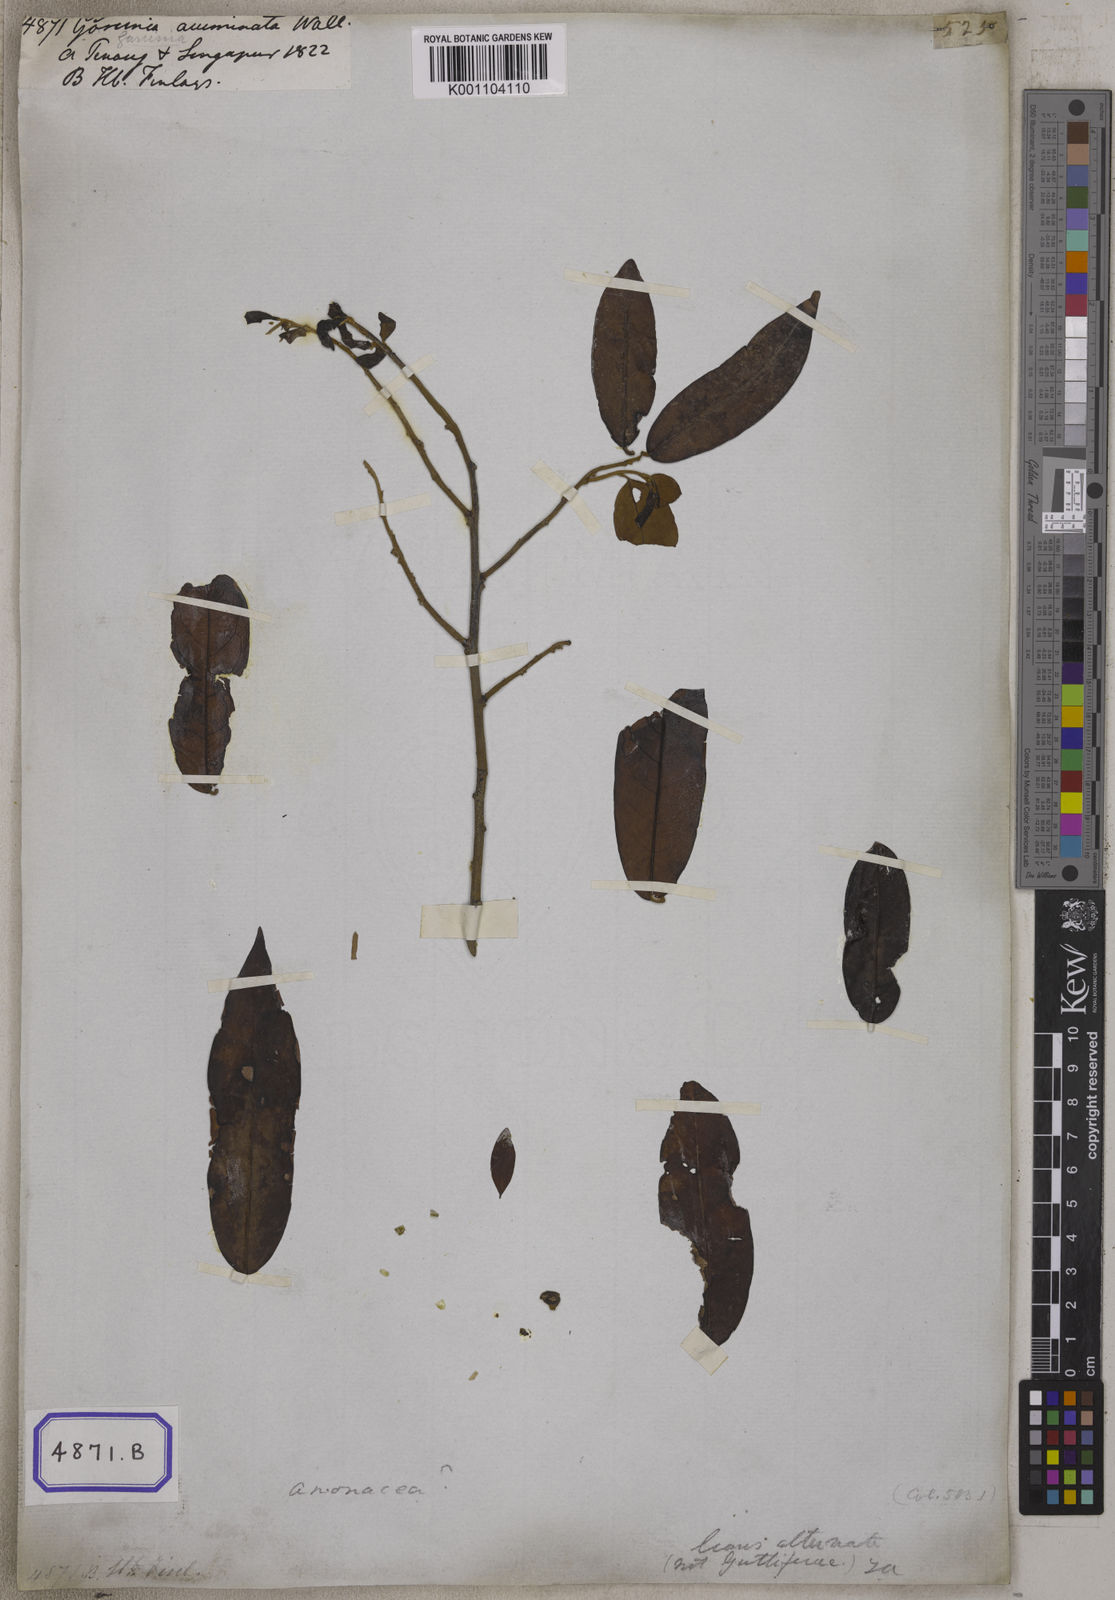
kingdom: Plantae
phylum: Tracheophyta
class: Magnoliopsida
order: Malpighiales
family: Clusiaceae
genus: Garcinia
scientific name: Garcinia
